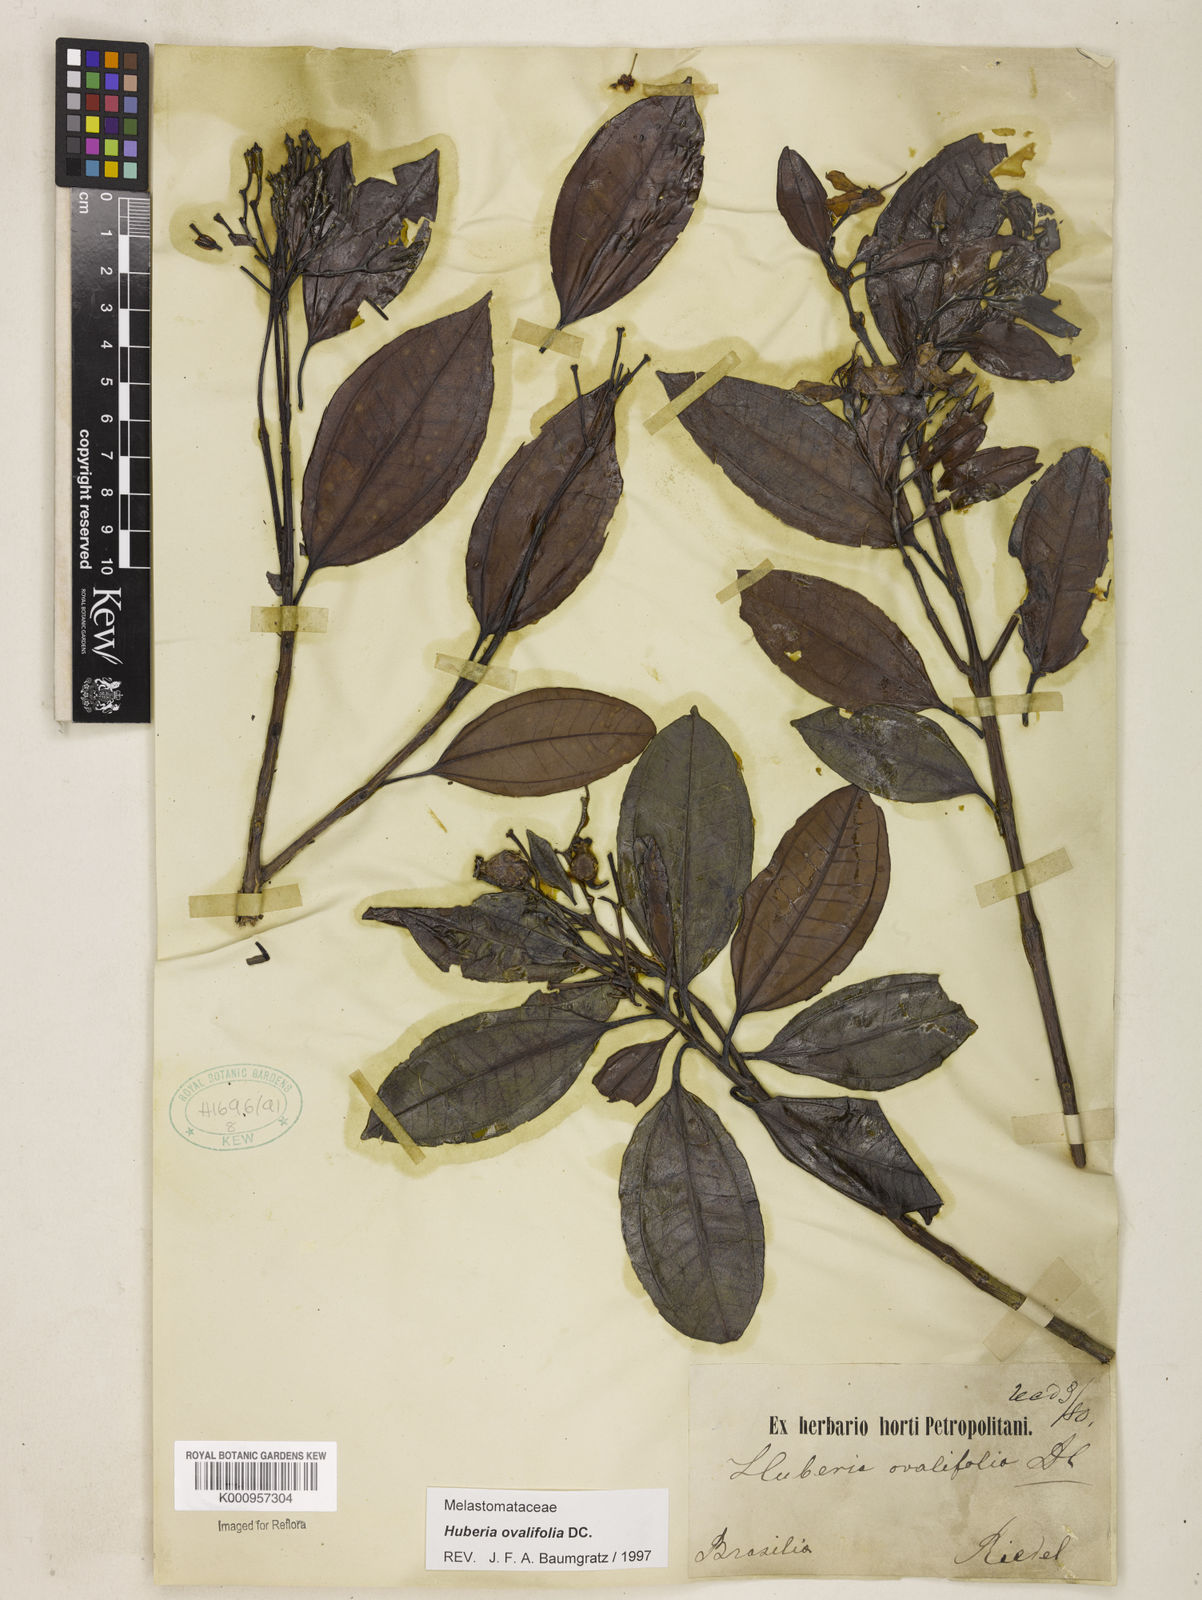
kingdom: Plantae
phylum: Tracheophyta
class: Magnoliopsida
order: Myrtales
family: Melastomataceae
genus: Huberia
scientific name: Huberia ovalifolia
